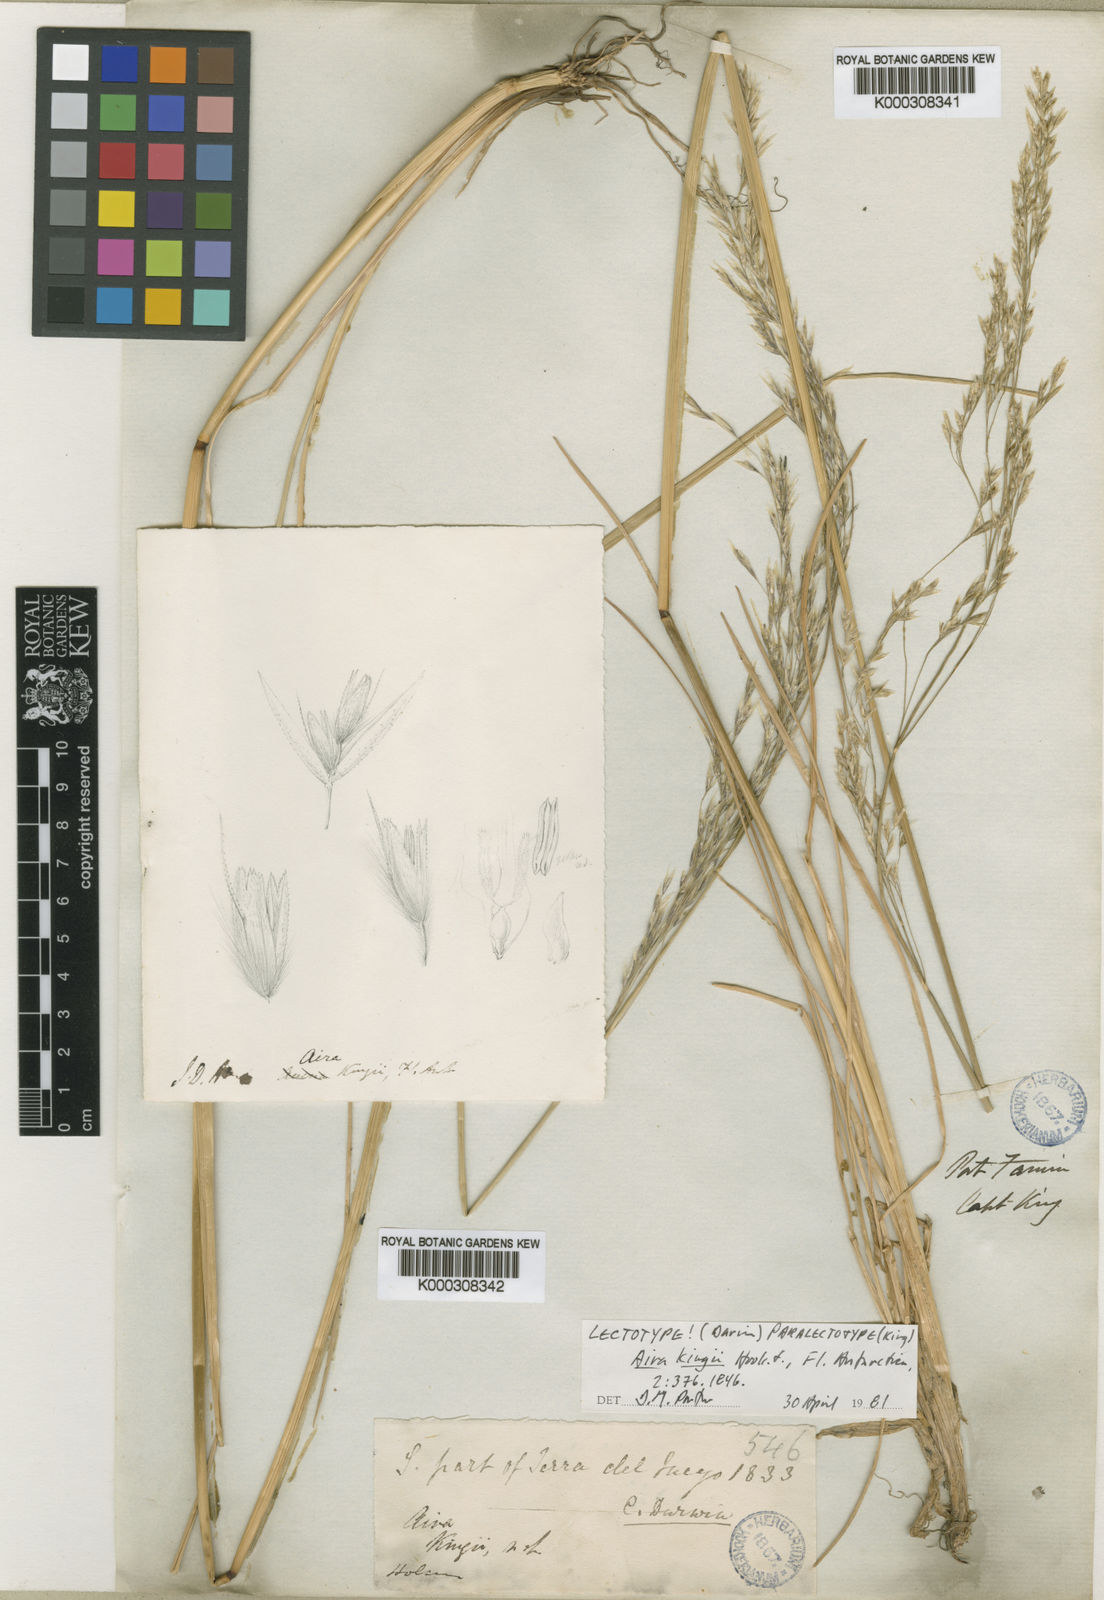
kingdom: Plantae
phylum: Tracheophyta
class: Liliopsida
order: Poales
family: Poaceae
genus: Deschampsia
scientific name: Deschampsia kingii
